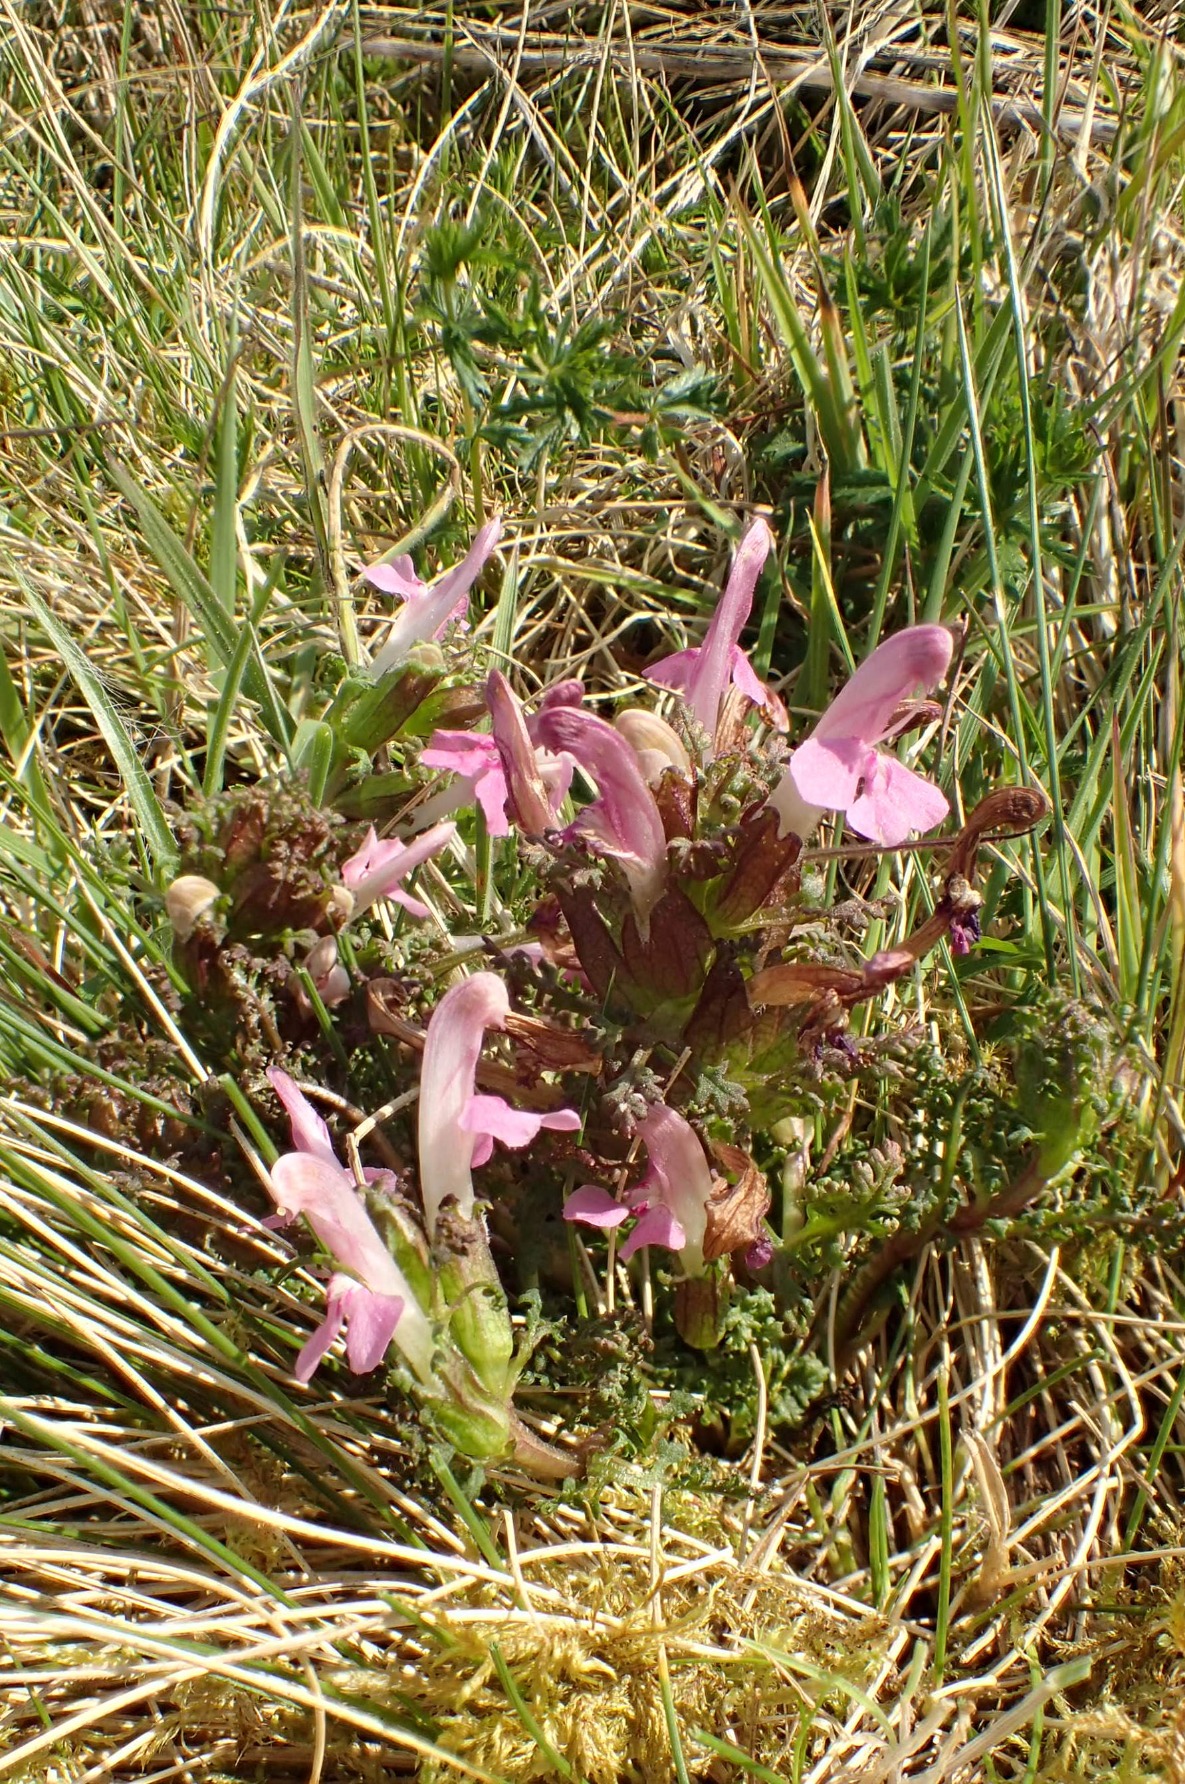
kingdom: Plantae
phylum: Tracheophyta
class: Magnoliopsida
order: Lamiales
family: Orobanchaceae
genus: Pedicularis
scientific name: Pedicularis sylvatica
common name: Mose-troldurt
